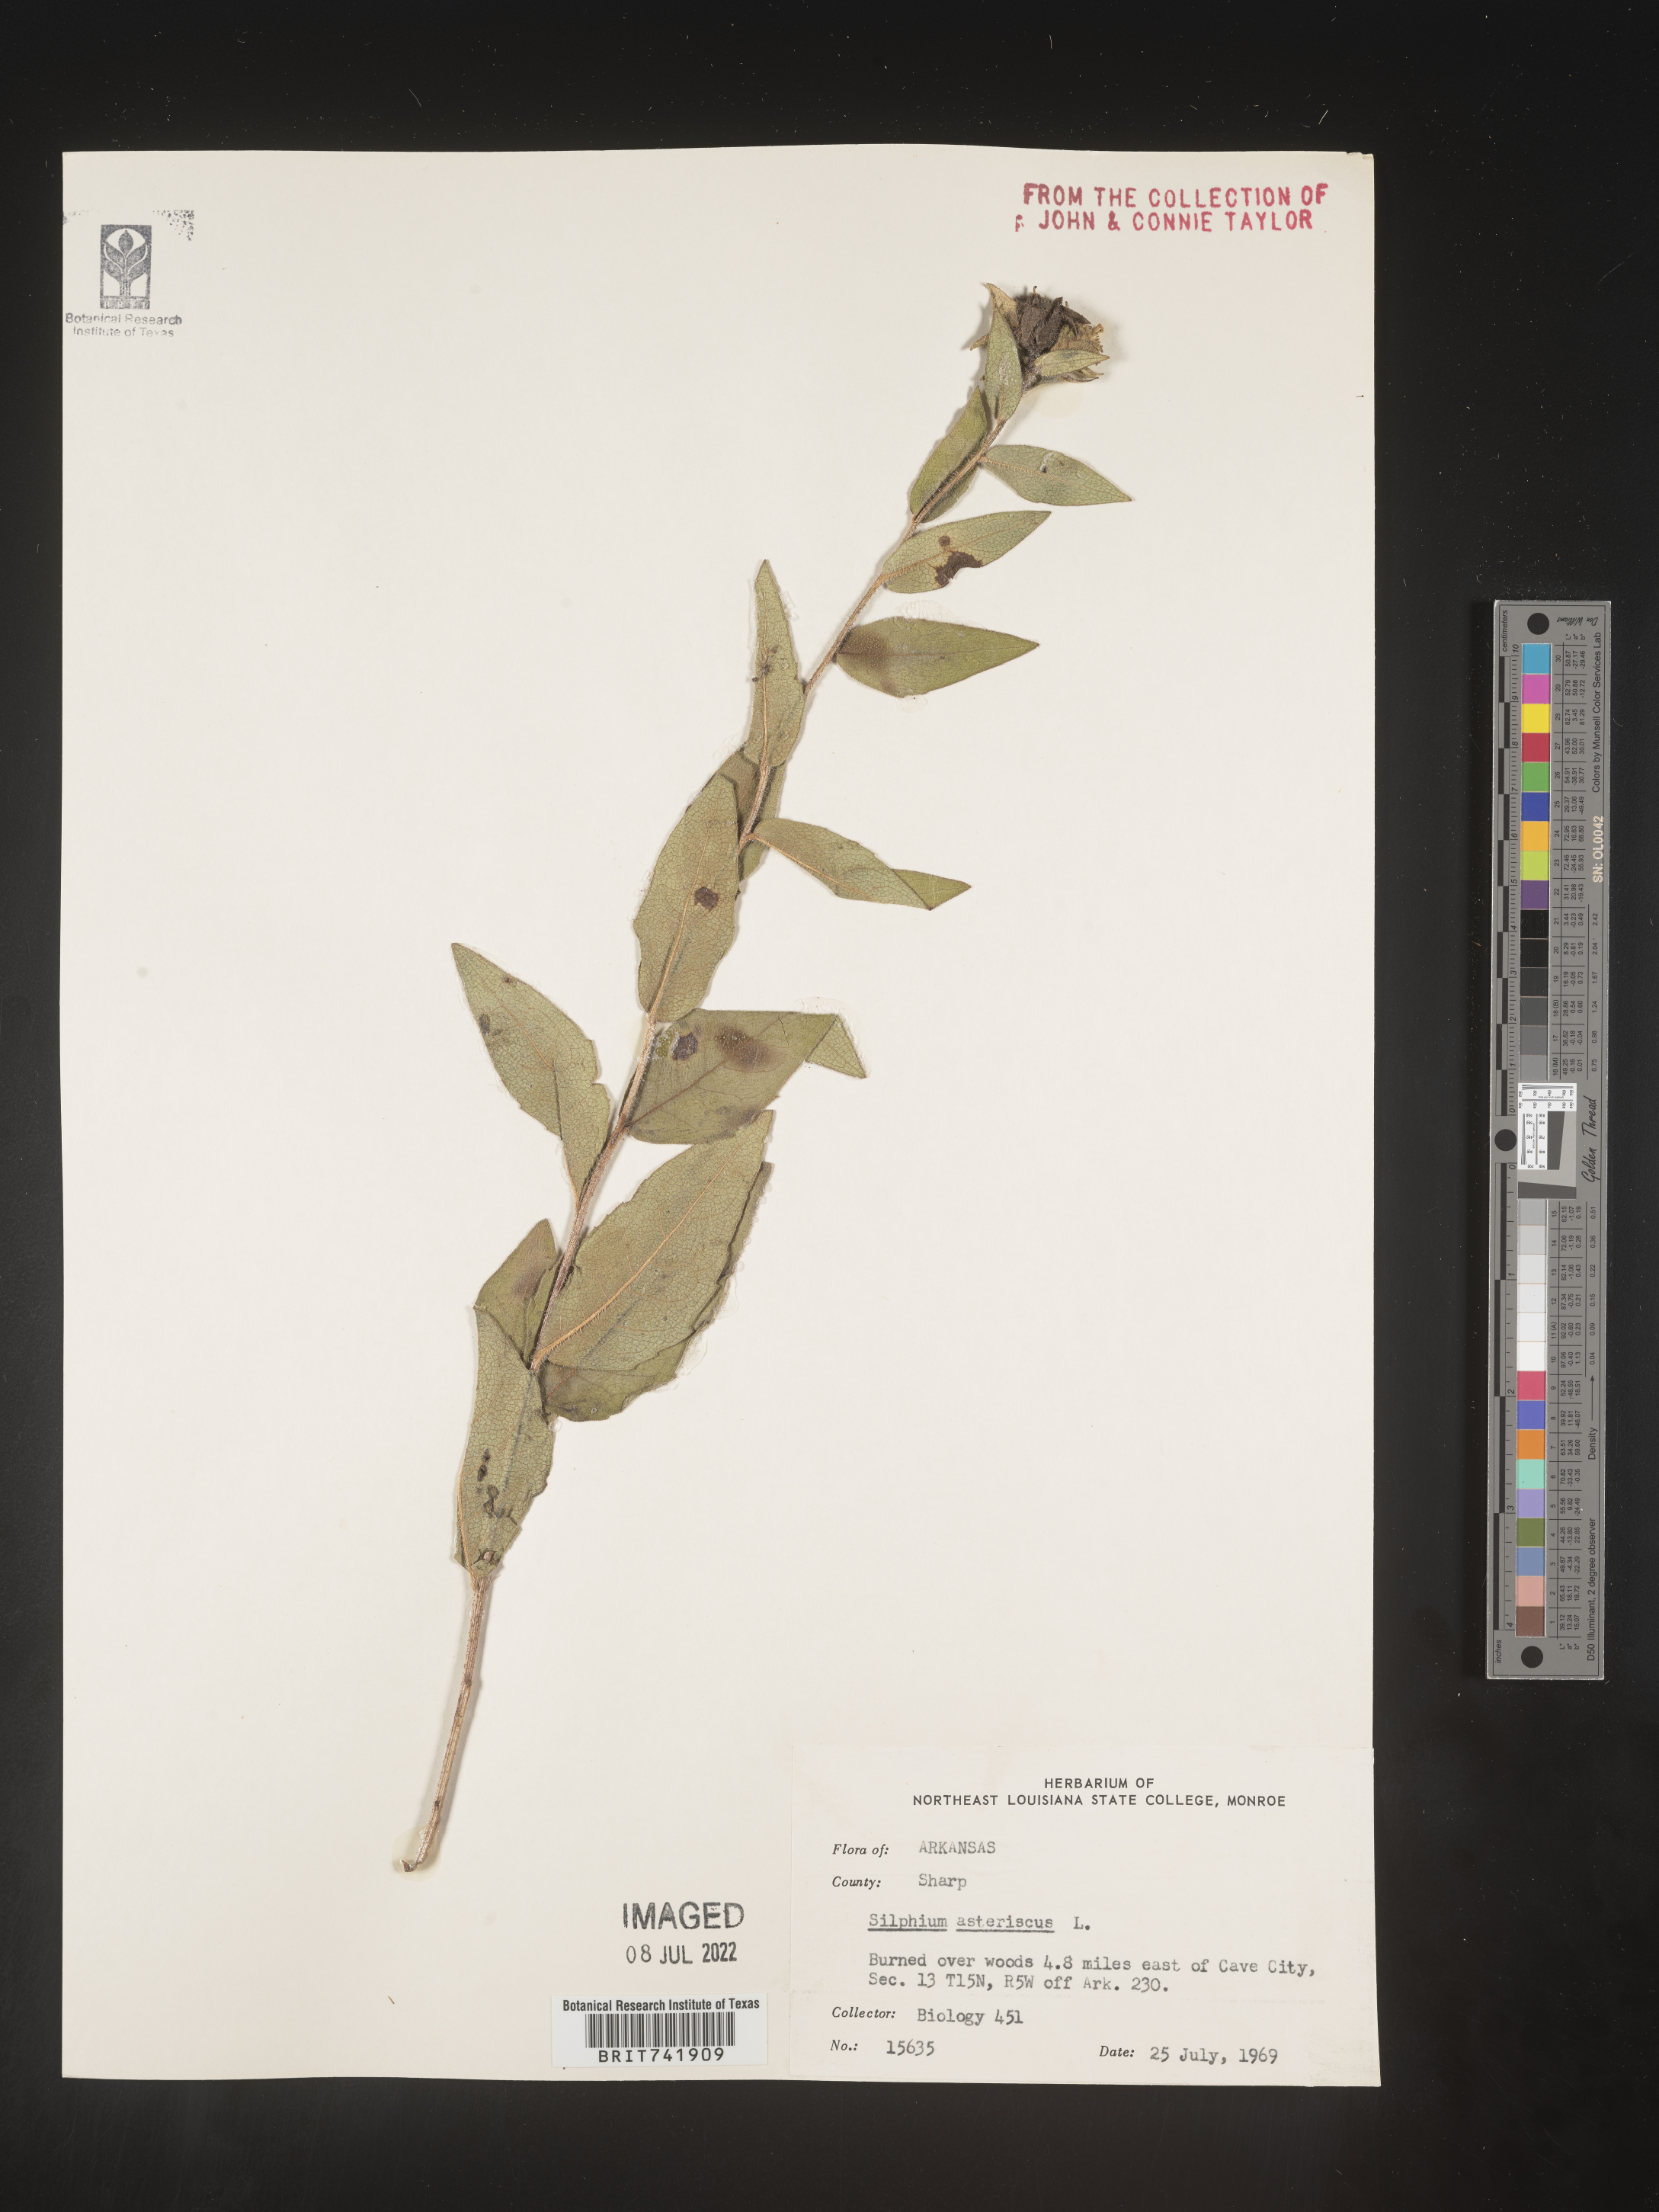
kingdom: Plantae
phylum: Tracheophyta
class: Magnoliopsida
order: Asterales
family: Asteraceae
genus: Silphium
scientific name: Silphium asperrimum
